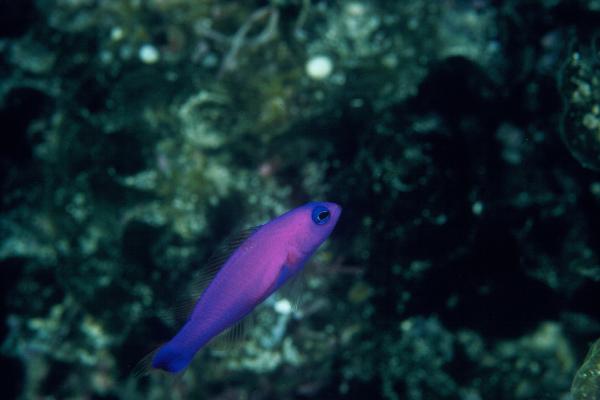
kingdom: Animalia
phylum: Chordata
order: Perciformes
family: Pseudochromidae
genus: Pictichromis
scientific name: Pictichromis porphyrea
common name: Magenta dottyback
